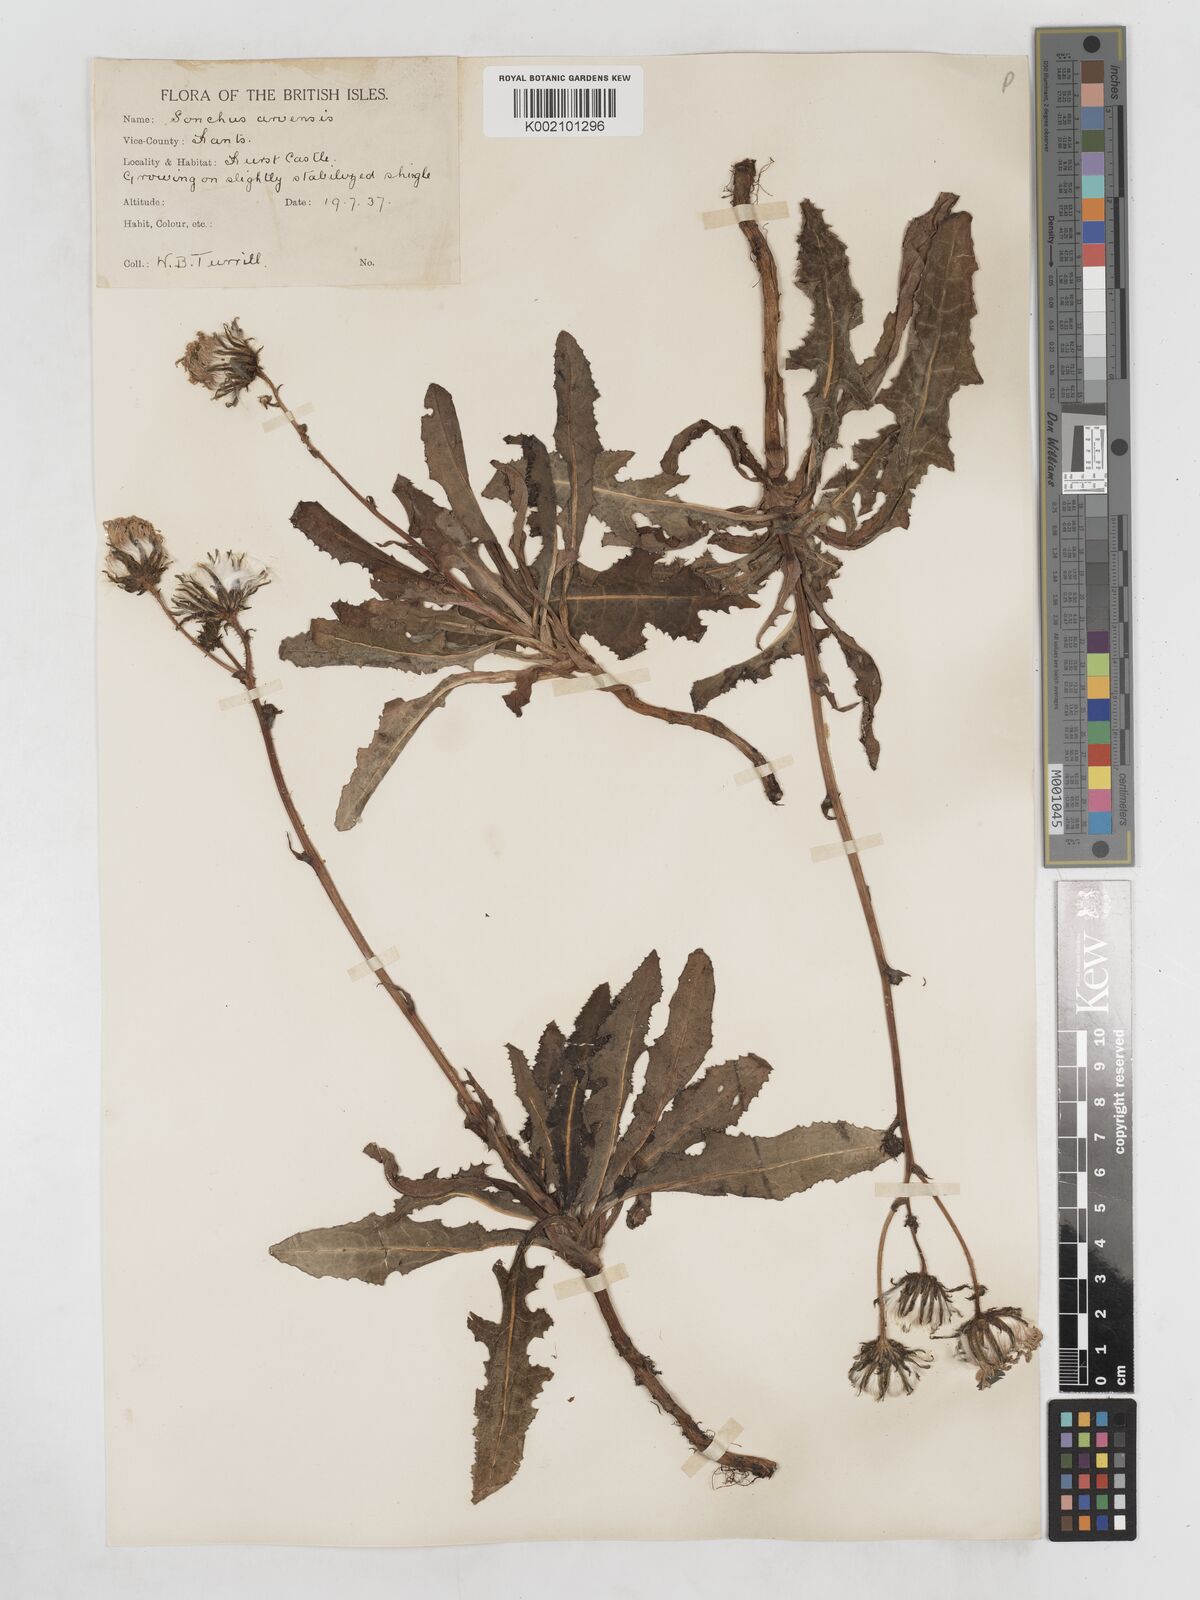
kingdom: Plantae
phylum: Tracheophyta
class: Magnoliopsida
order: Asterales
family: Asteraceae
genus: Sonchus
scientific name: Sonchus arvensis
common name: Perennial sow-thistle
